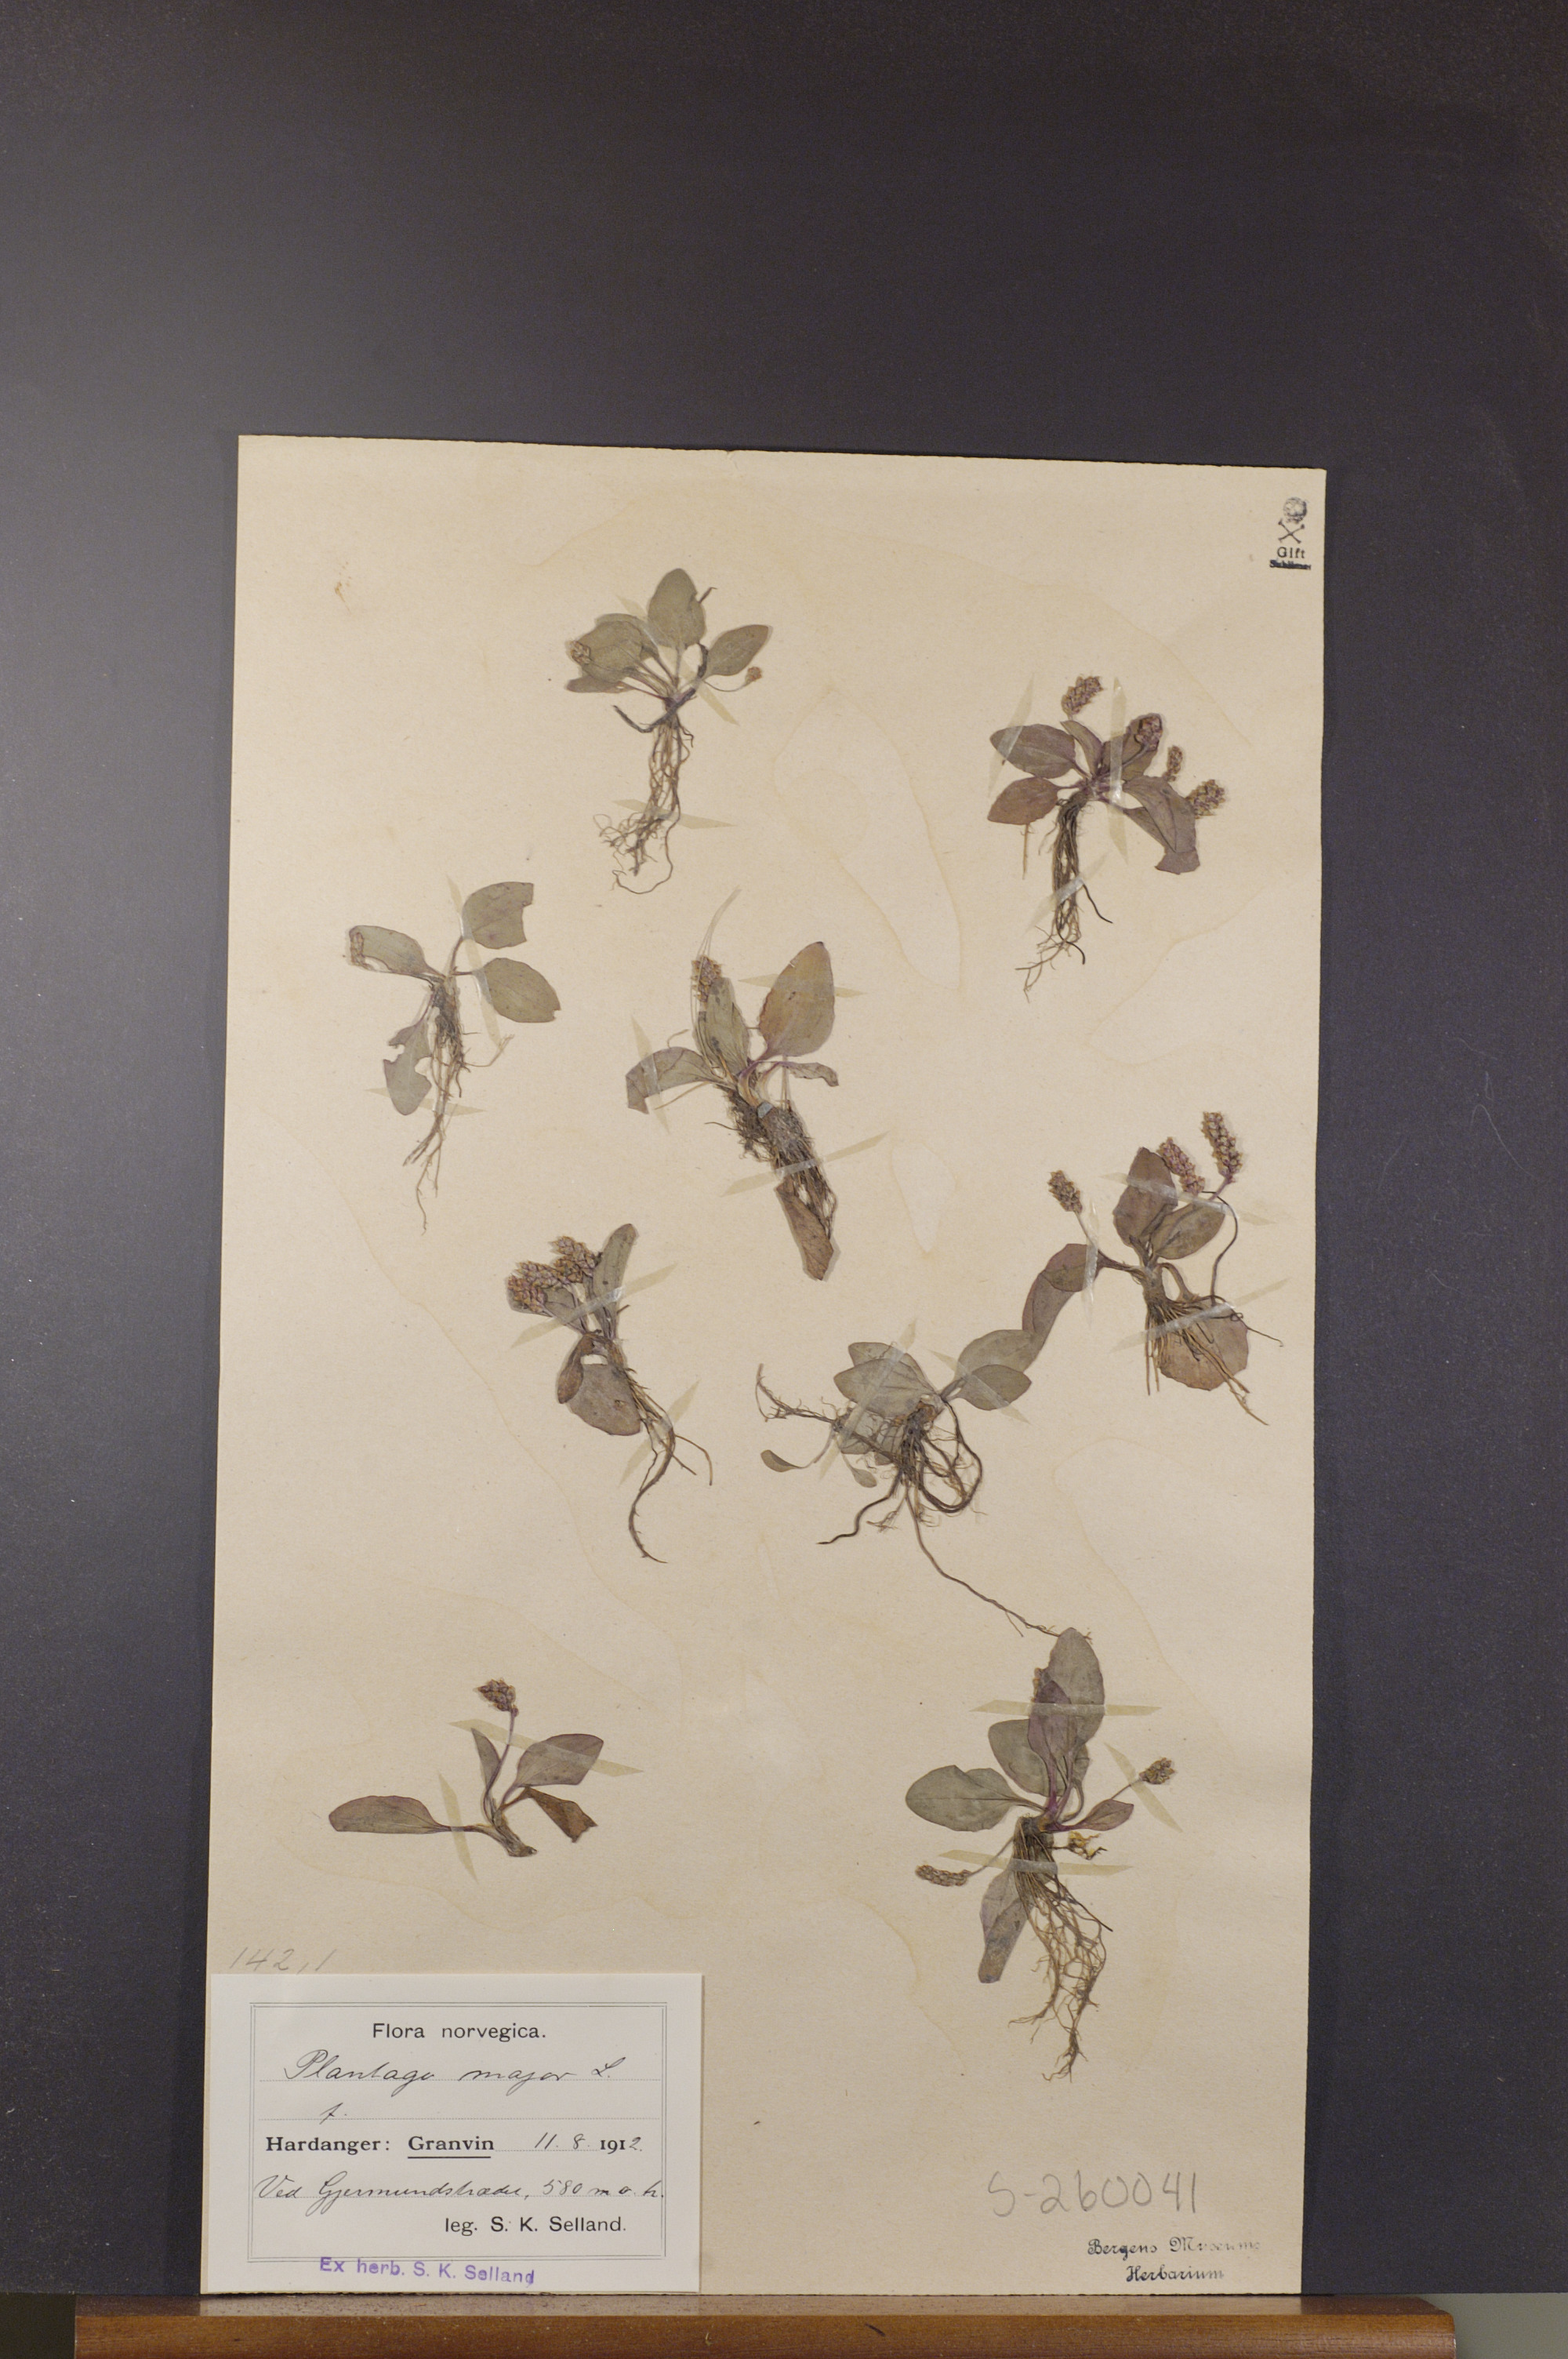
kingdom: Plantae
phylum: Tracheophyta
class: Magnoliopsida
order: Lamiales
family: Plantaginaceae
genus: Plantago
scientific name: Plantago major
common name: Common plantain
